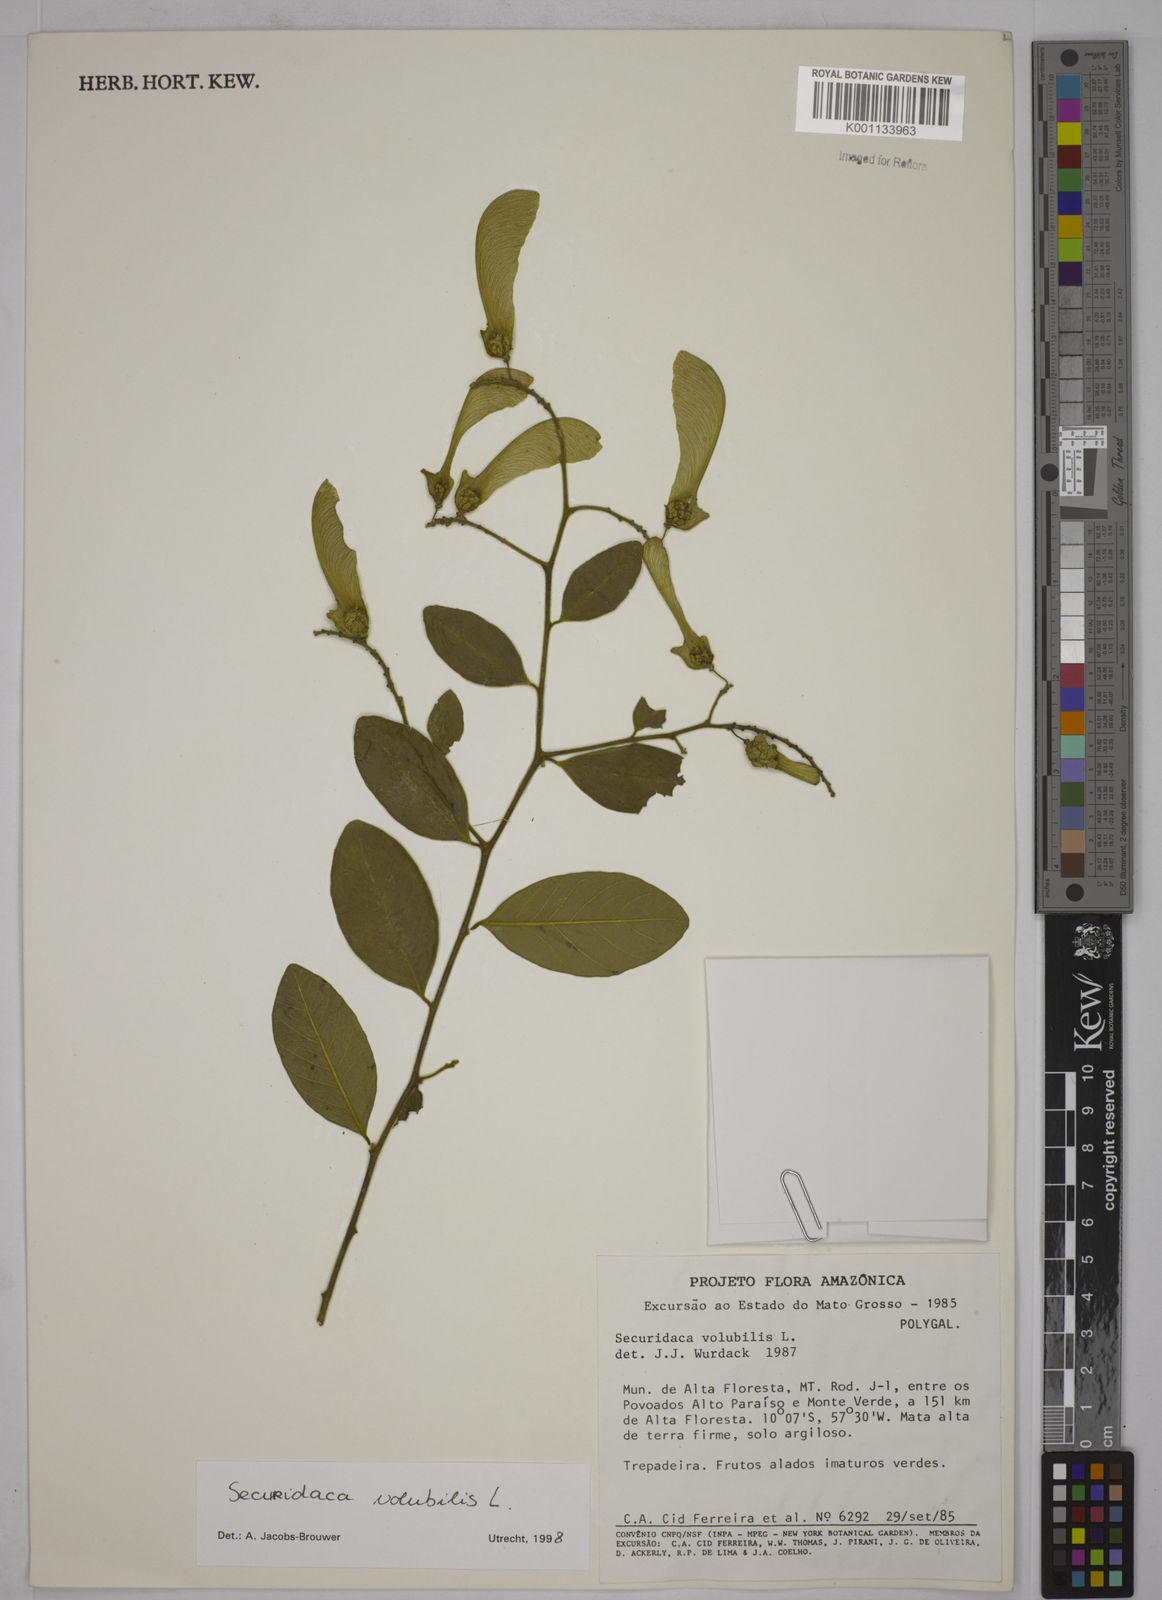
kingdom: Plantae
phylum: Tracheophyta
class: Magnoliopsida
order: Fabales
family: Polygalaceae
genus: Securidaca
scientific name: Securidaca diversifolia
